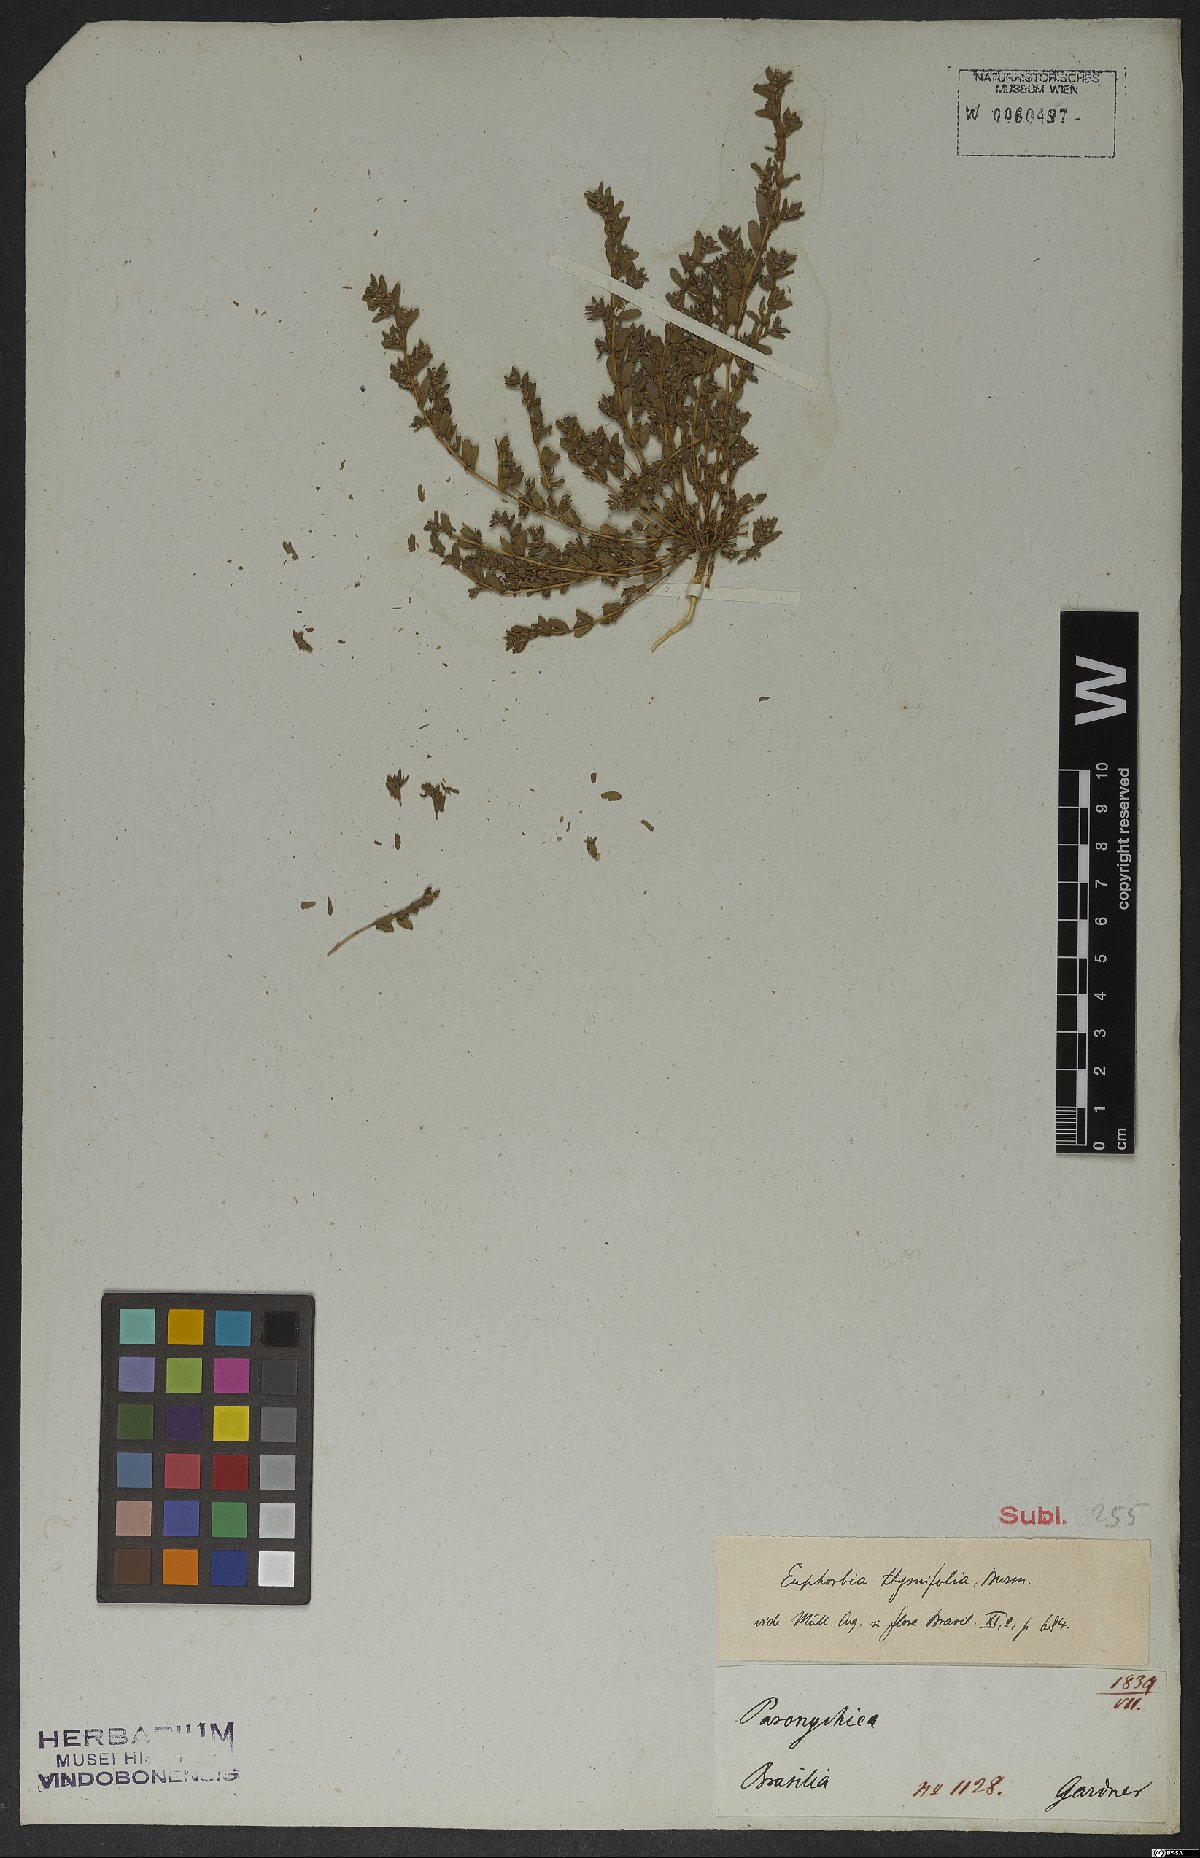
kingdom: Plantae
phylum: Tracheophyta
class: Magnoliopsida
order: Malpighiales
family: Euphorbiaceae
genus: Euphorbia
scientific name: Euphorbia scordiifolia
